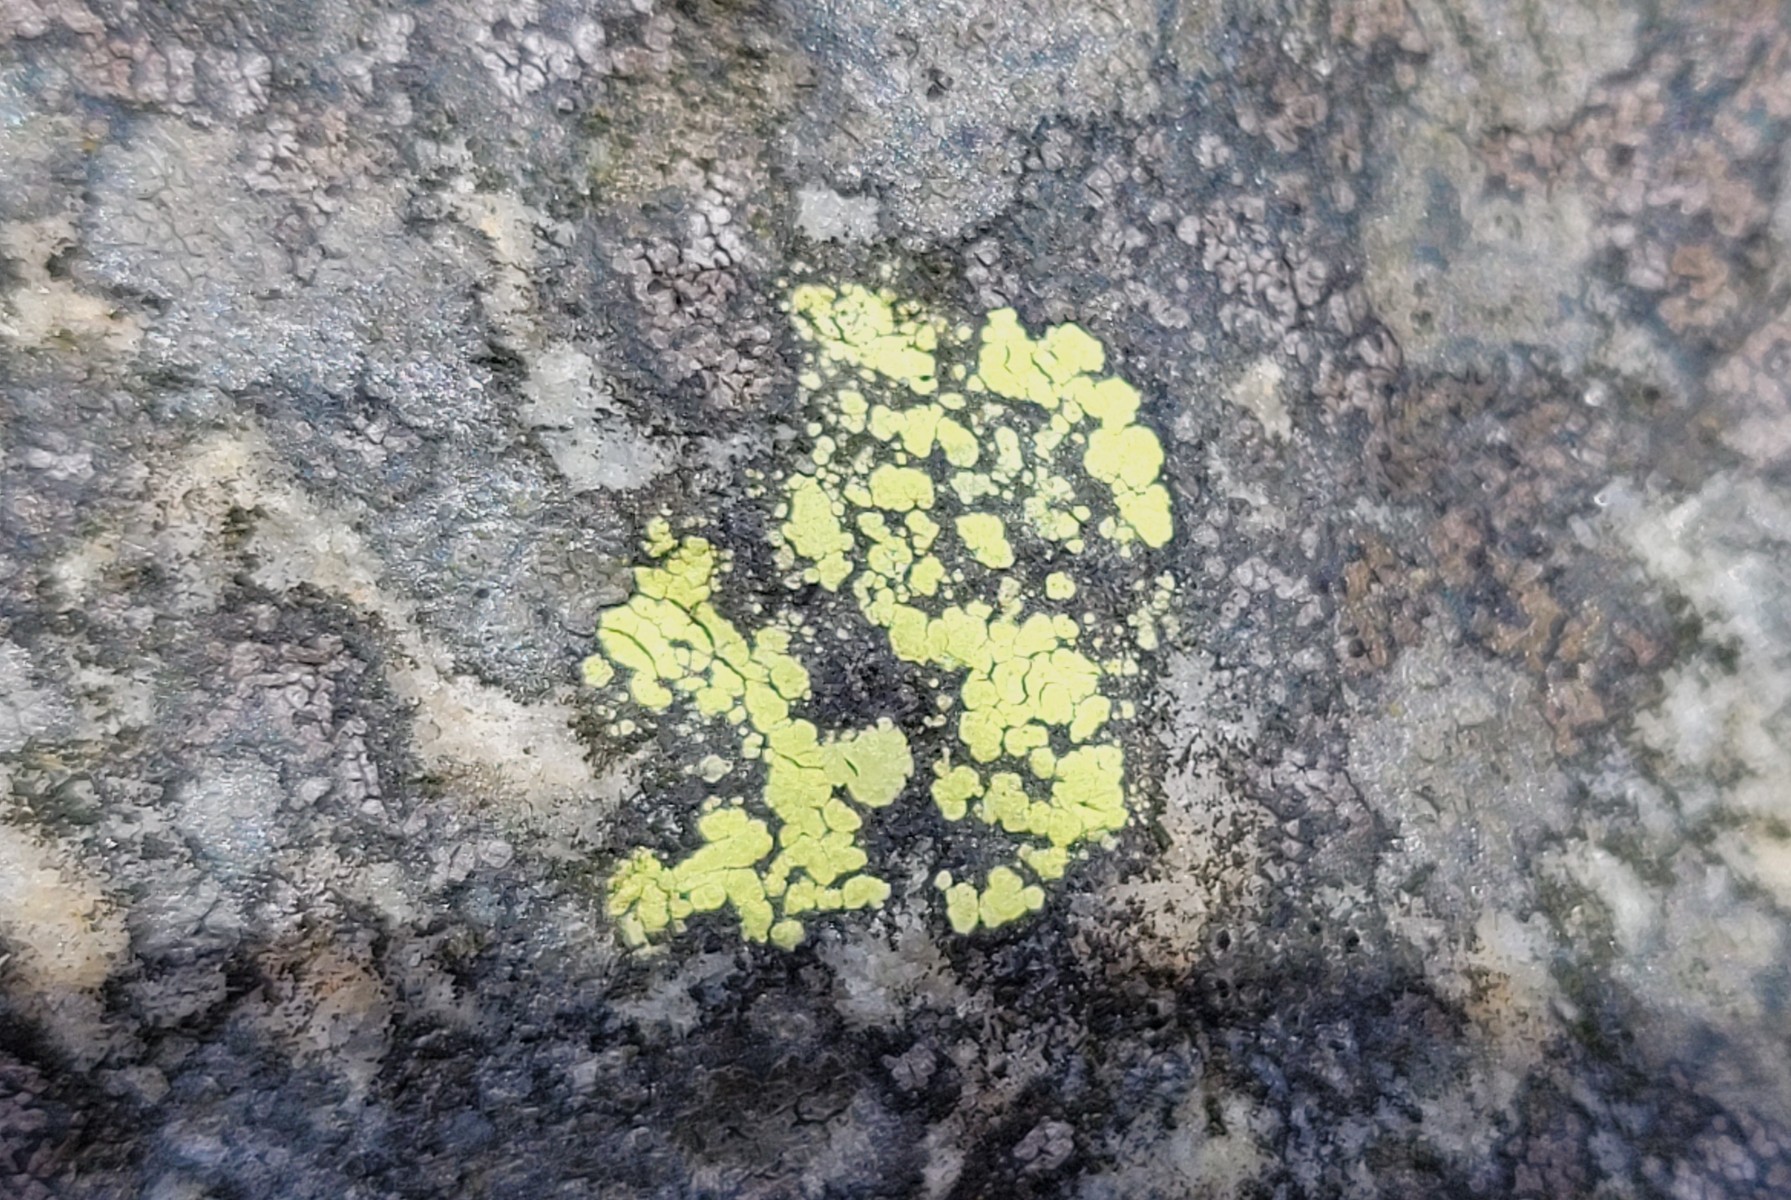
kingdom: Fungi
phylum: Ascomycota
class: Lecanoromycetes
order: Rhizocarpales
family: Rhizocarpaceae
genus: Rhizocarpon
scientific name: Rhizocarpon geographicum
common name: gulgrøn landkortlav
